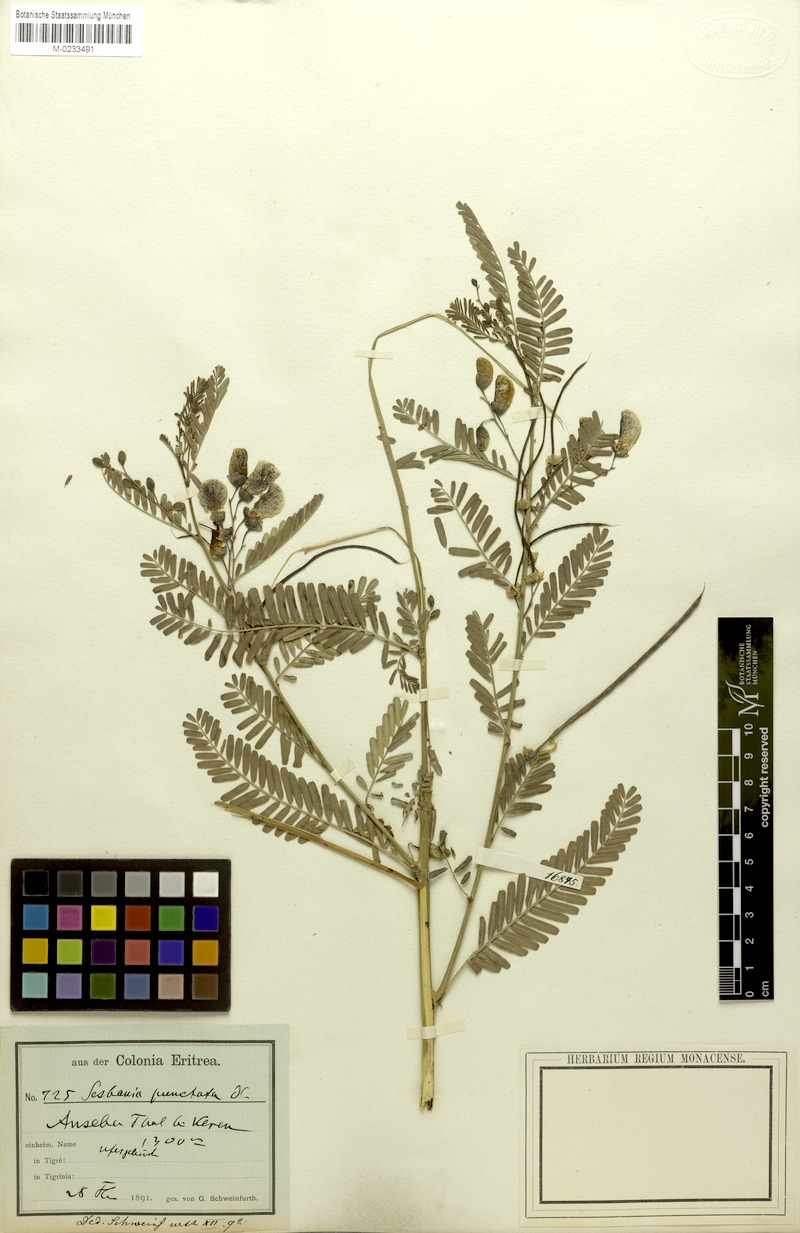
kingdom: Plantae
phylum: Tracheophyta
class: Magnoliopsida
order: Fabales
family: Fabaceae
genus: Sesbania
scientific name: Sesbania sesban
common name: Egyptian sesban
